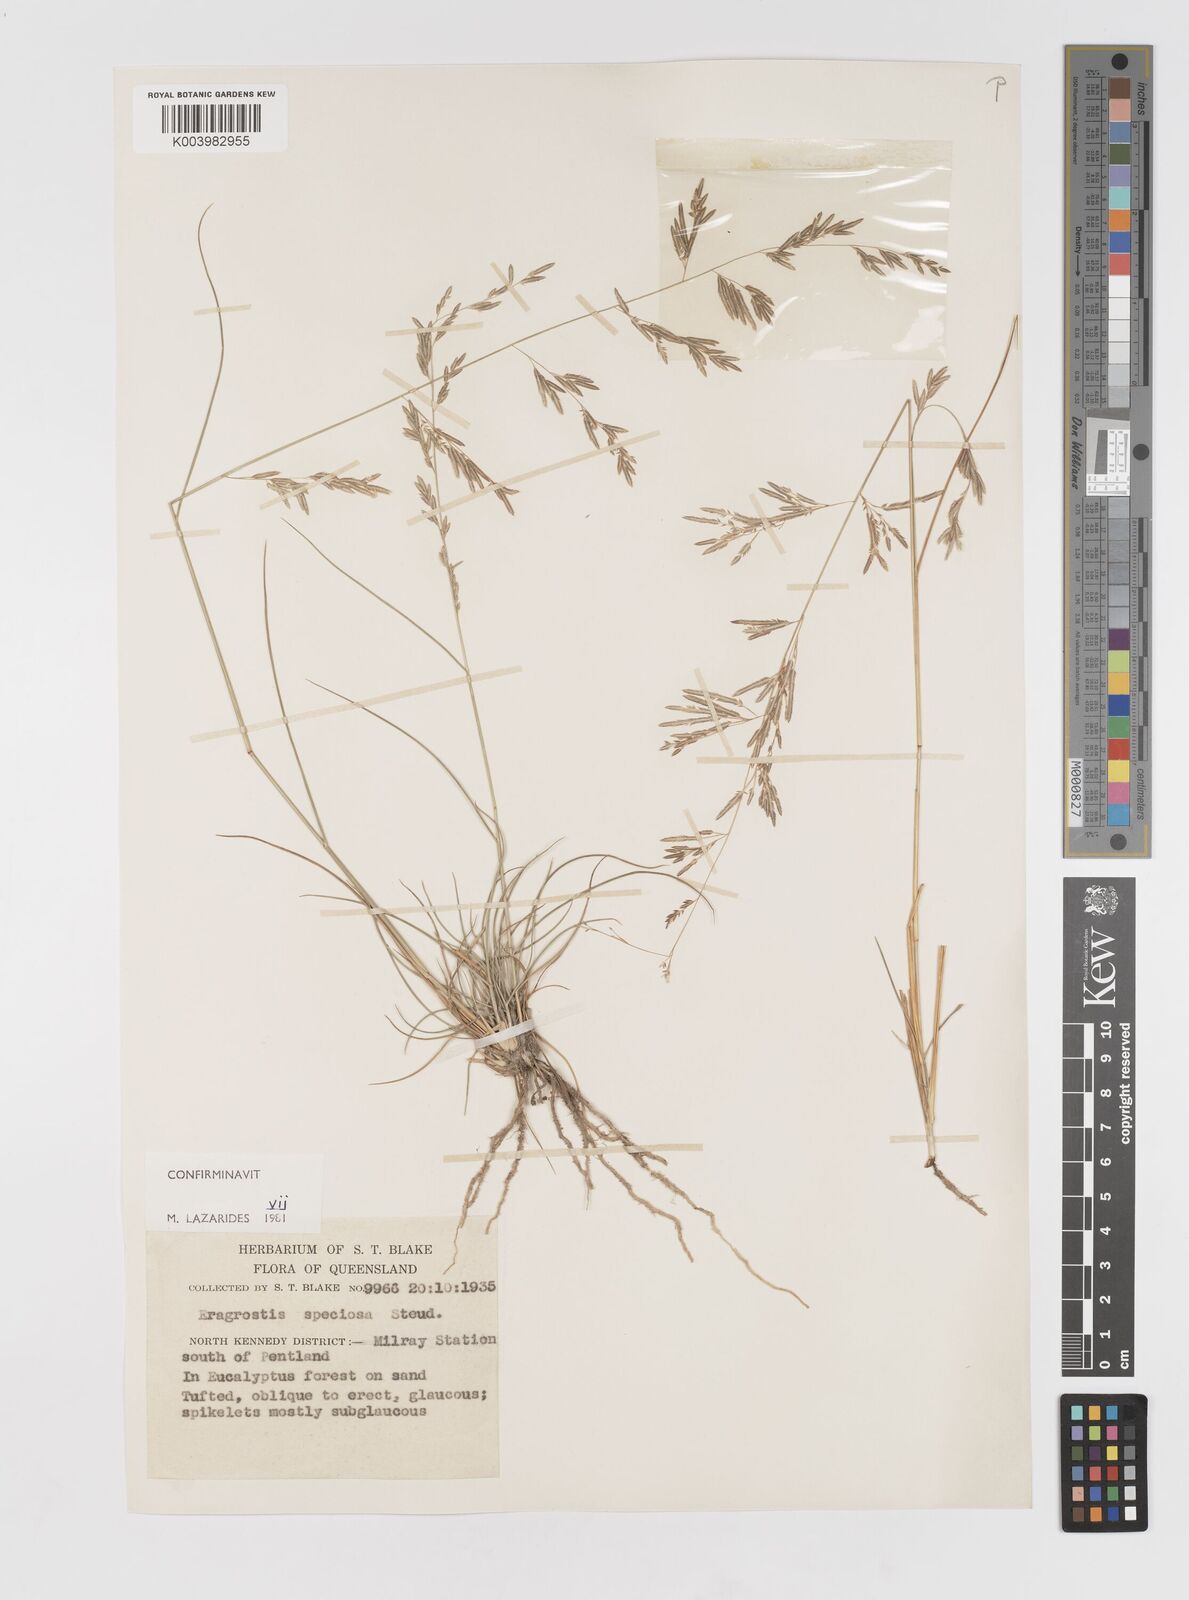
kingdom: Plantae
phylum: Tracheophyta
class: Liliopsida
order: Poales
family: Poaceae
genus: Eragrostis
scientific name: Eragrostis speciosa
